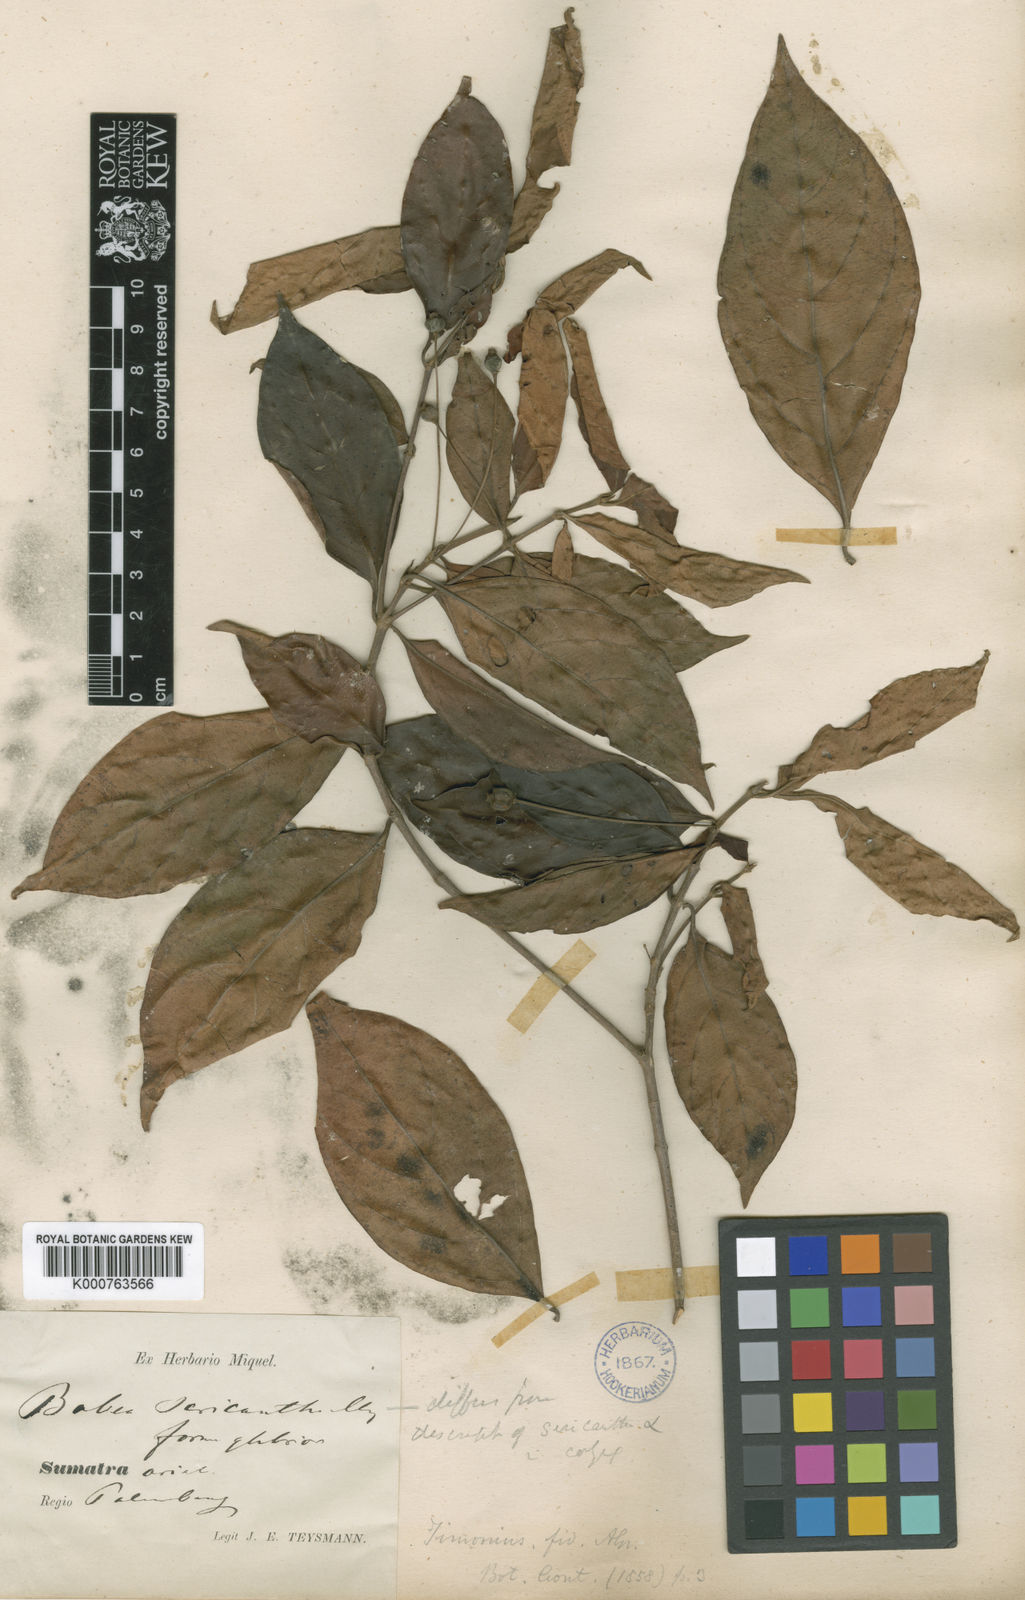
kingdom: Plantae
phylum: Tracheophyta
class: Magnoliopsida
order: Gentianales
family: Rubiaceae
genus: Timonius
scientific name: Timonius flavescens
